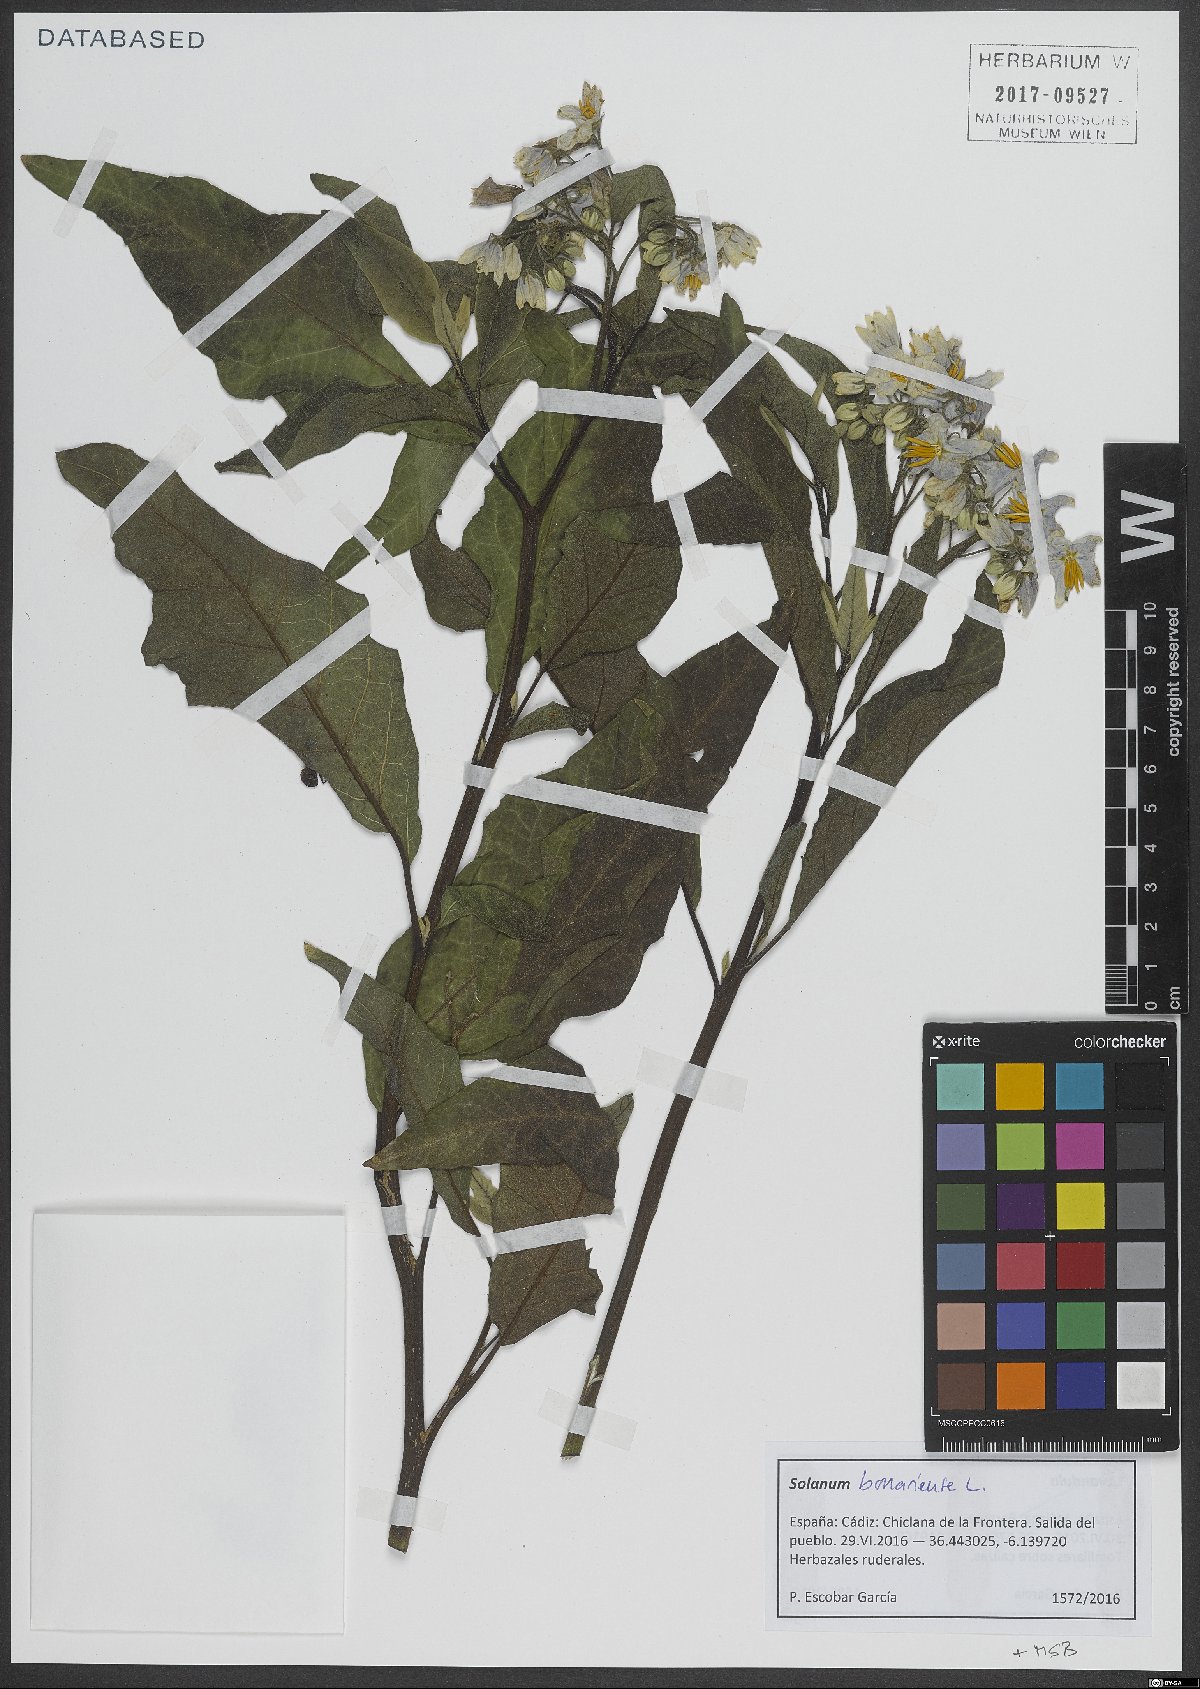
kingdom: Plantae
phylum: Tracheophyta
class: Magnoliopsida
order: Solanales
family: Solanaceae
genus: Solanum
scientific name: Solanum bonariense
